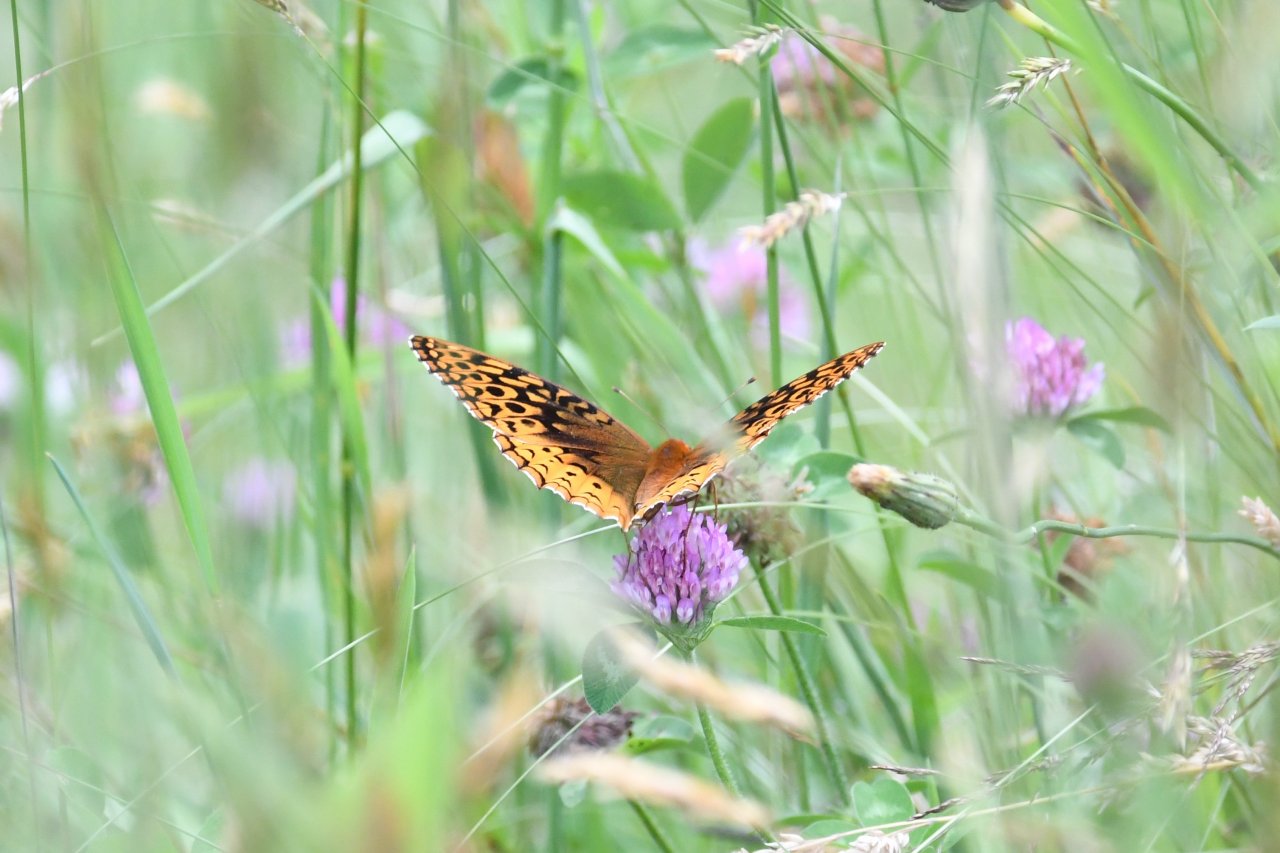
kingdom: Animalia
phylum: Arthropoda
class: Insecta
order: Lepidoptera
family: Nymphalidae
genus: Speyeria
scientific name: Speyeria cybele
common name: Great Spangled Fritillary
